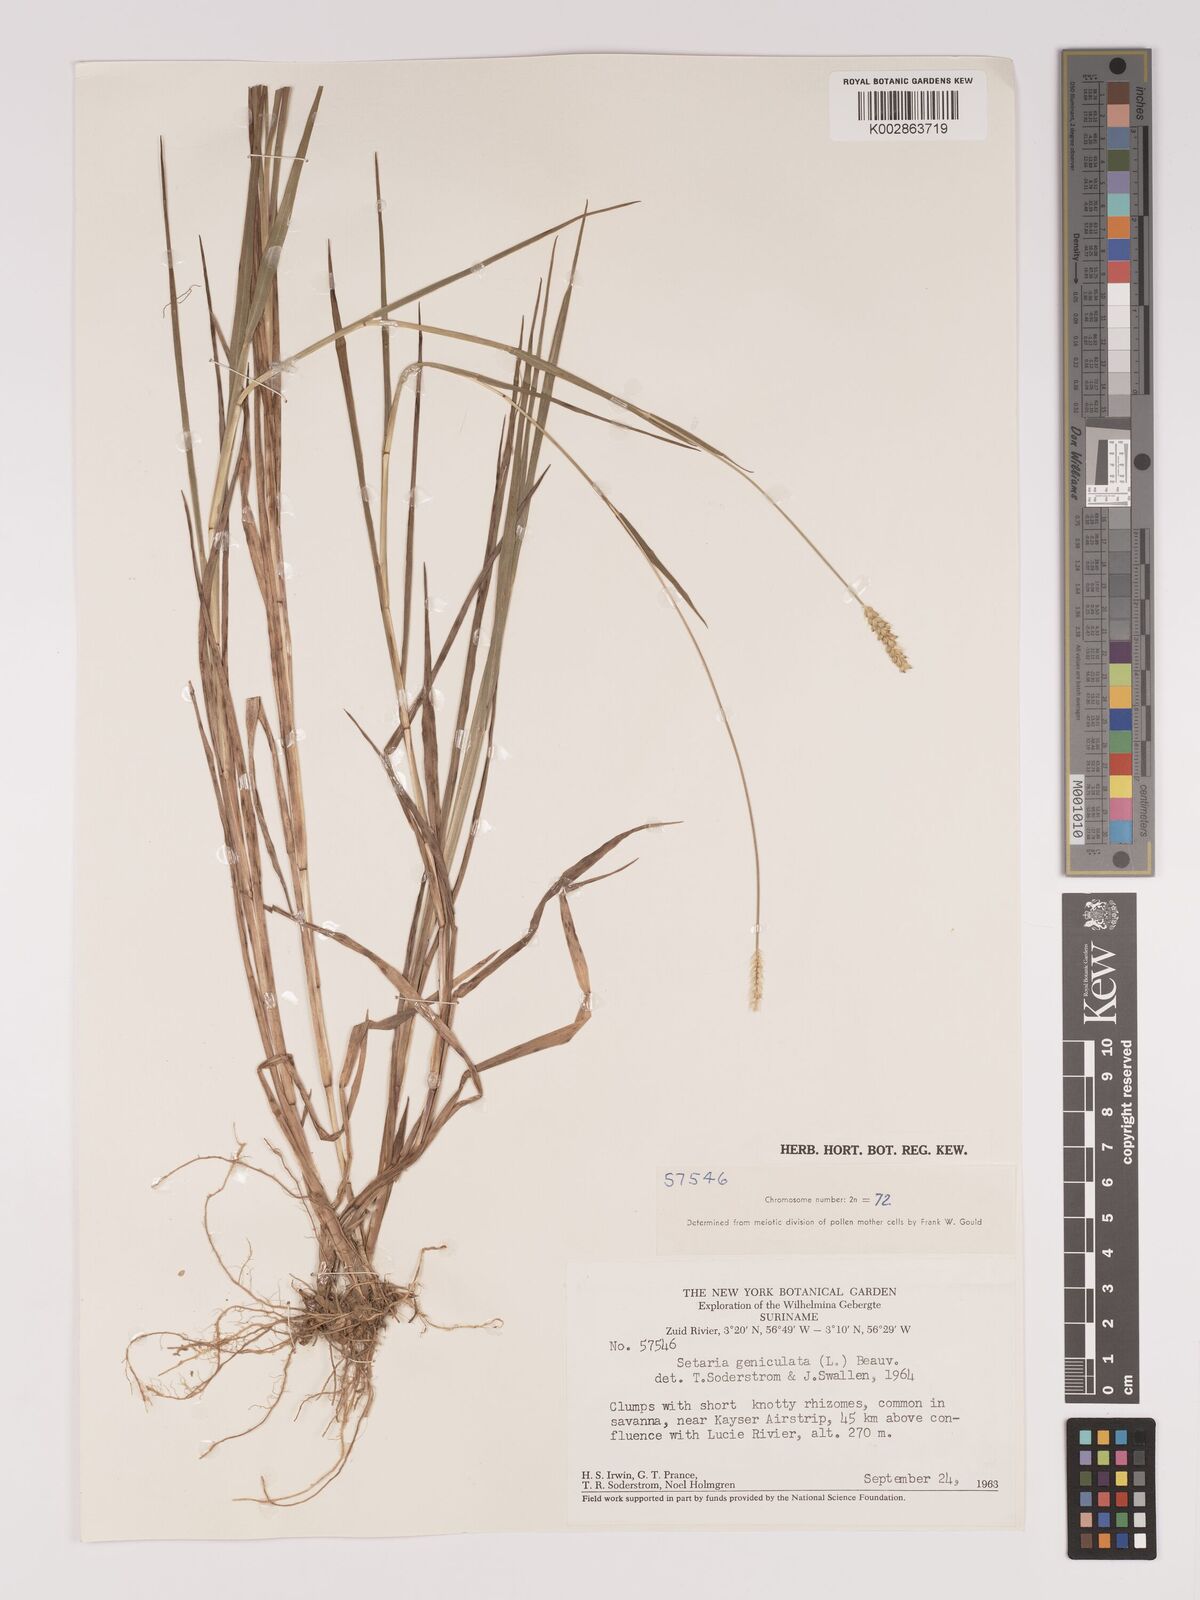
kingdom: Plantae
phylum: Tracheophyta
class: Liliopsida
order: Poales
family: Poaceae
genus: Setaria
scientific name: Setaria parviflora
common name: Knotroot bristle-grass
